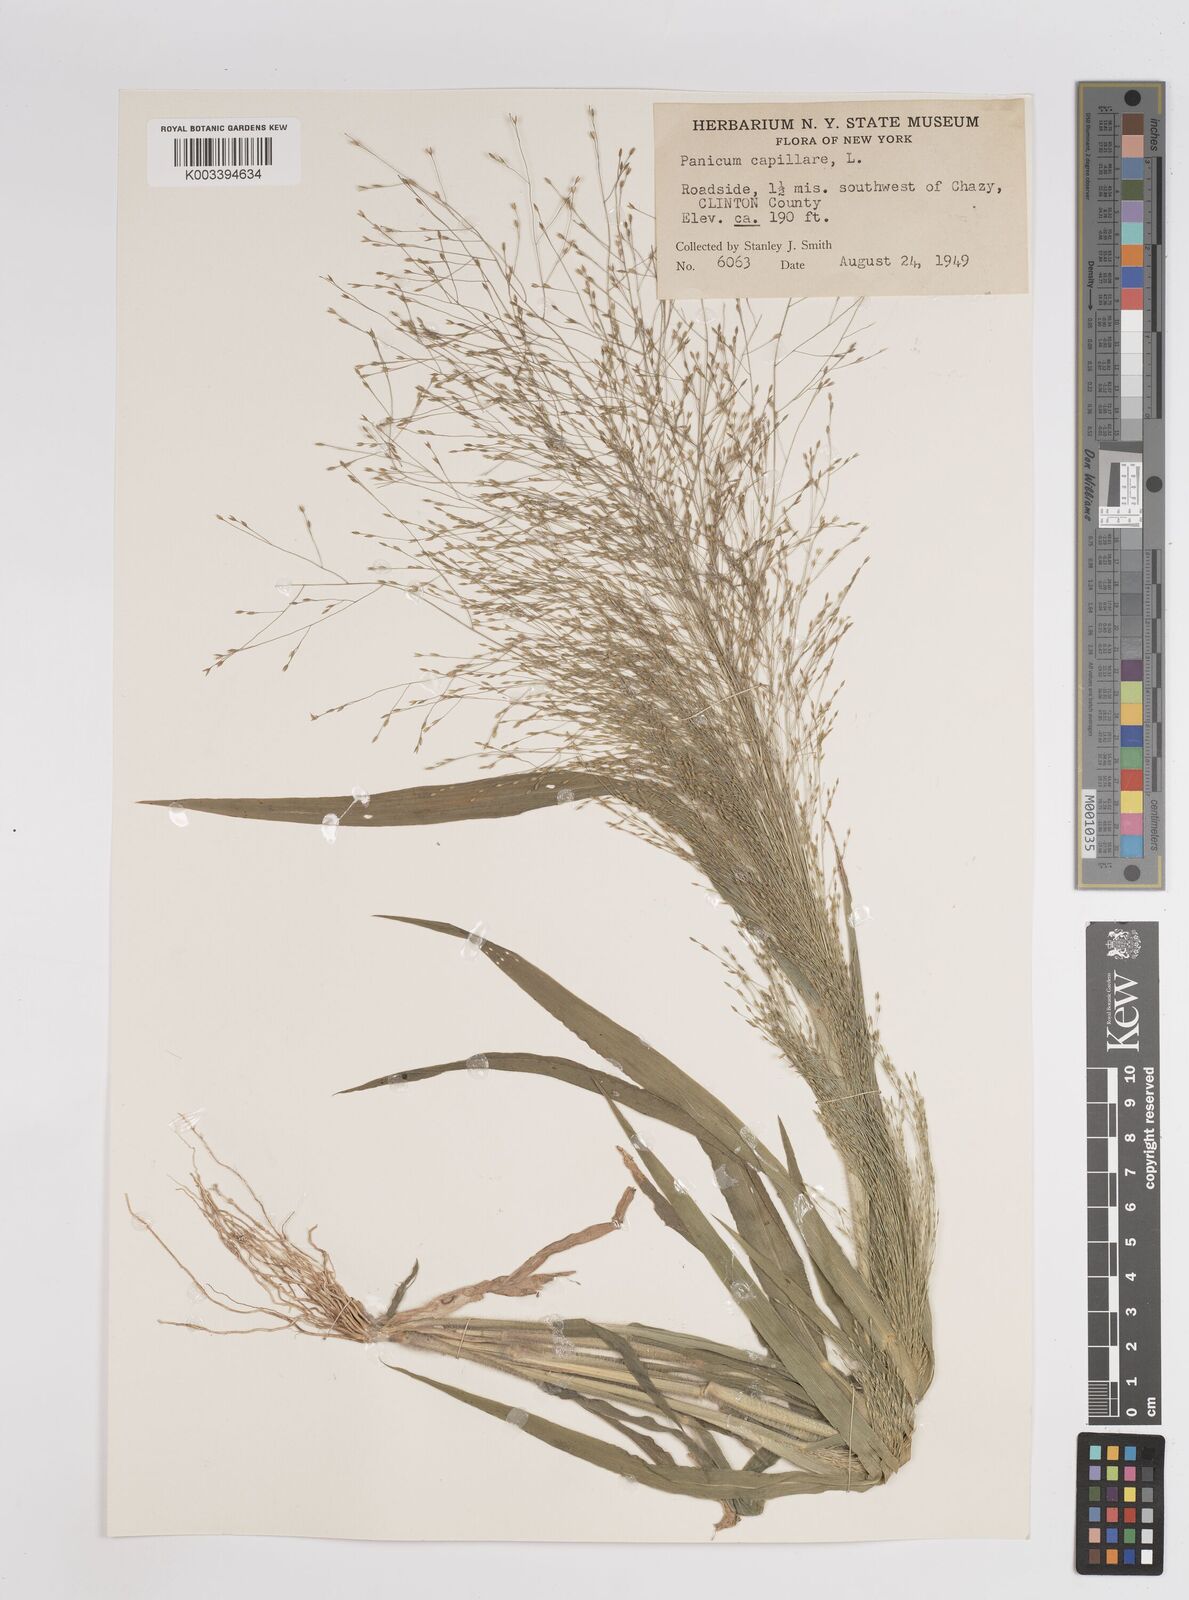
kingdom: Plantae
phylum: Tracheophyta
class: Liliopsida
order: Poales
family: Poaceae
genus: Panicum
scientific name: Panicum capillare
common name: Witch-grass
